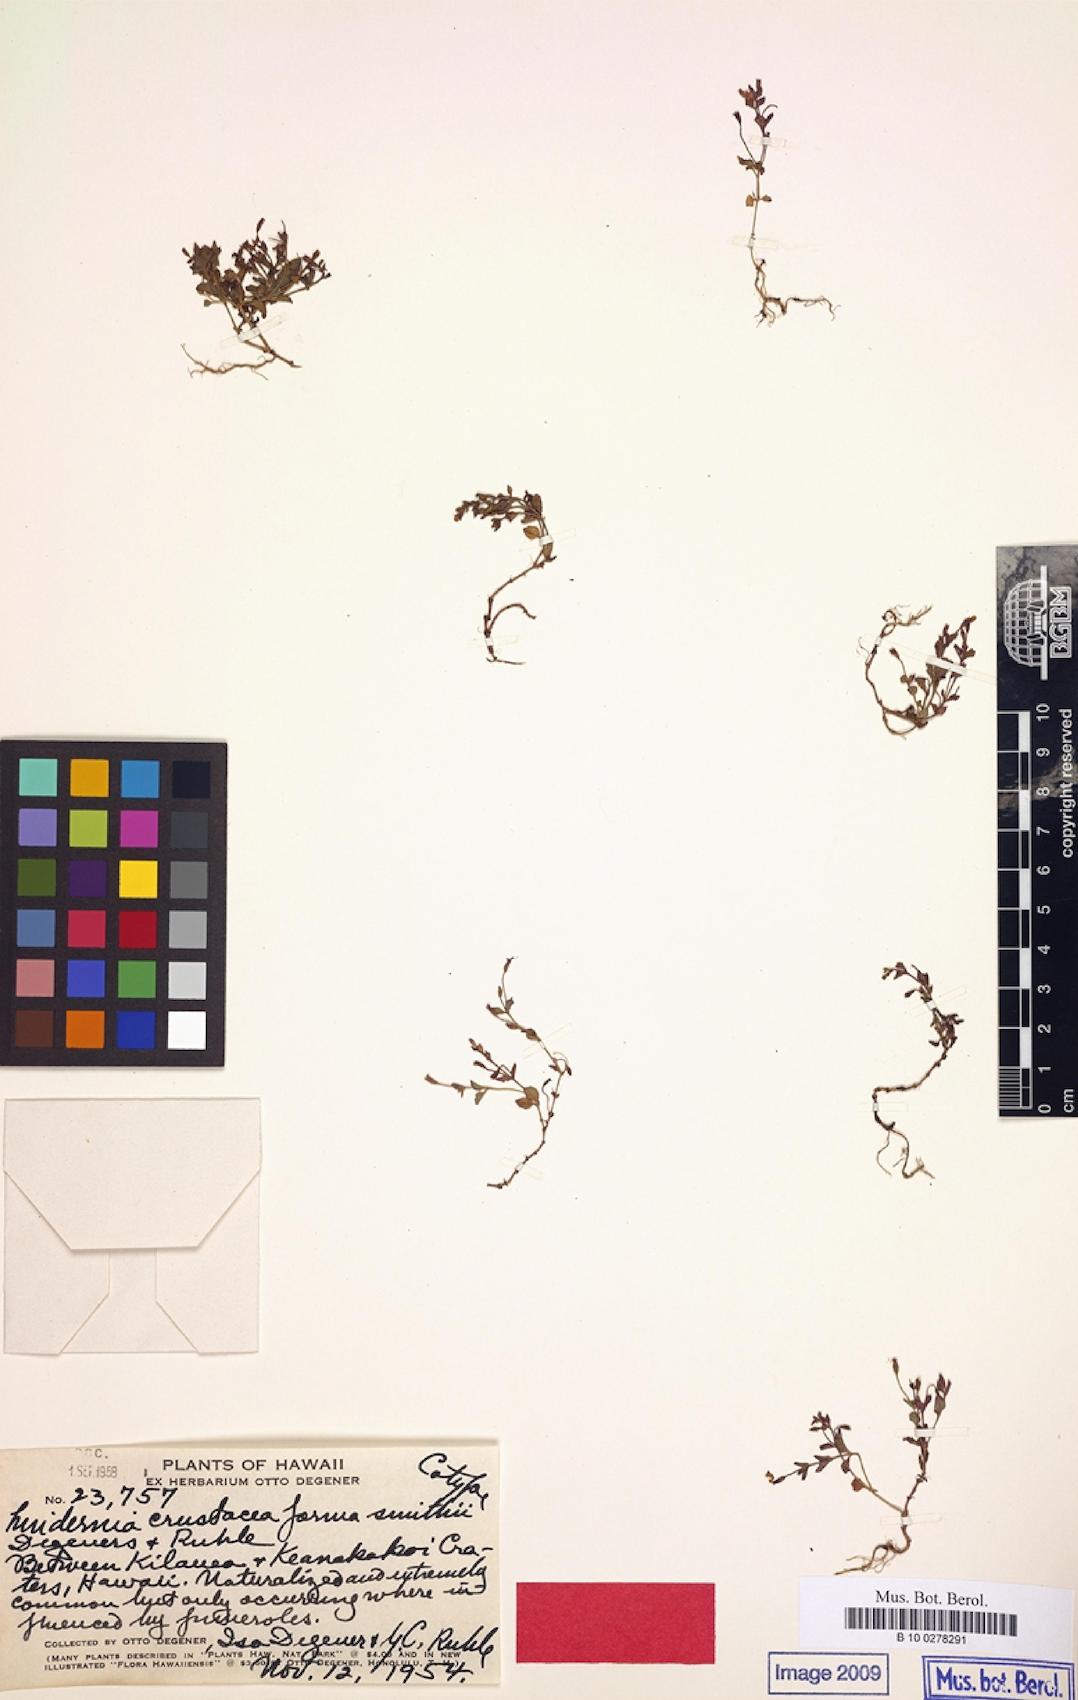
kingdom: Plantae
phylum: Tracheophyta
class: Magnoliopsida
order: Lamiales
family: Linderniaceae
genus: Torenia
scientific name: Torenia crustacea
